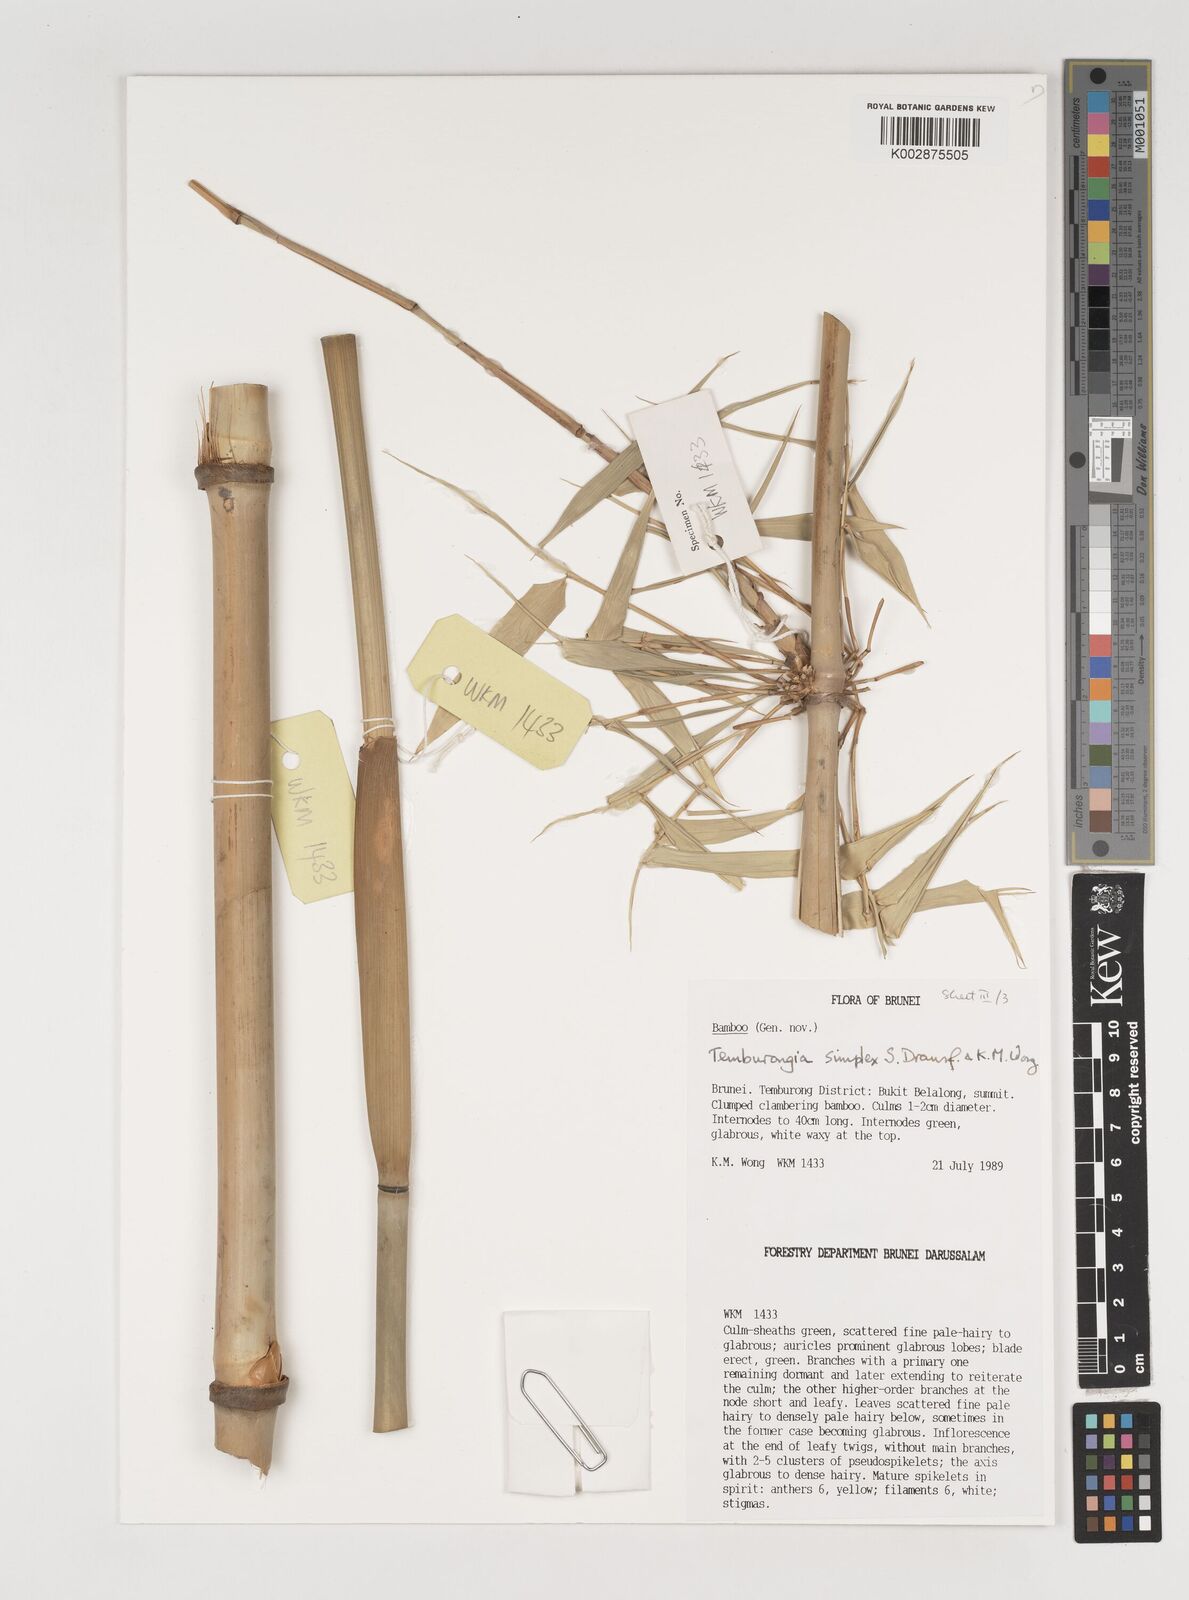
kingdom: Plantae
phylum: Tracheophyta
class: Liliopsida
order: Poales
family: Poaceae
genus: Temburongia
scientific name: Temburongia simplex
